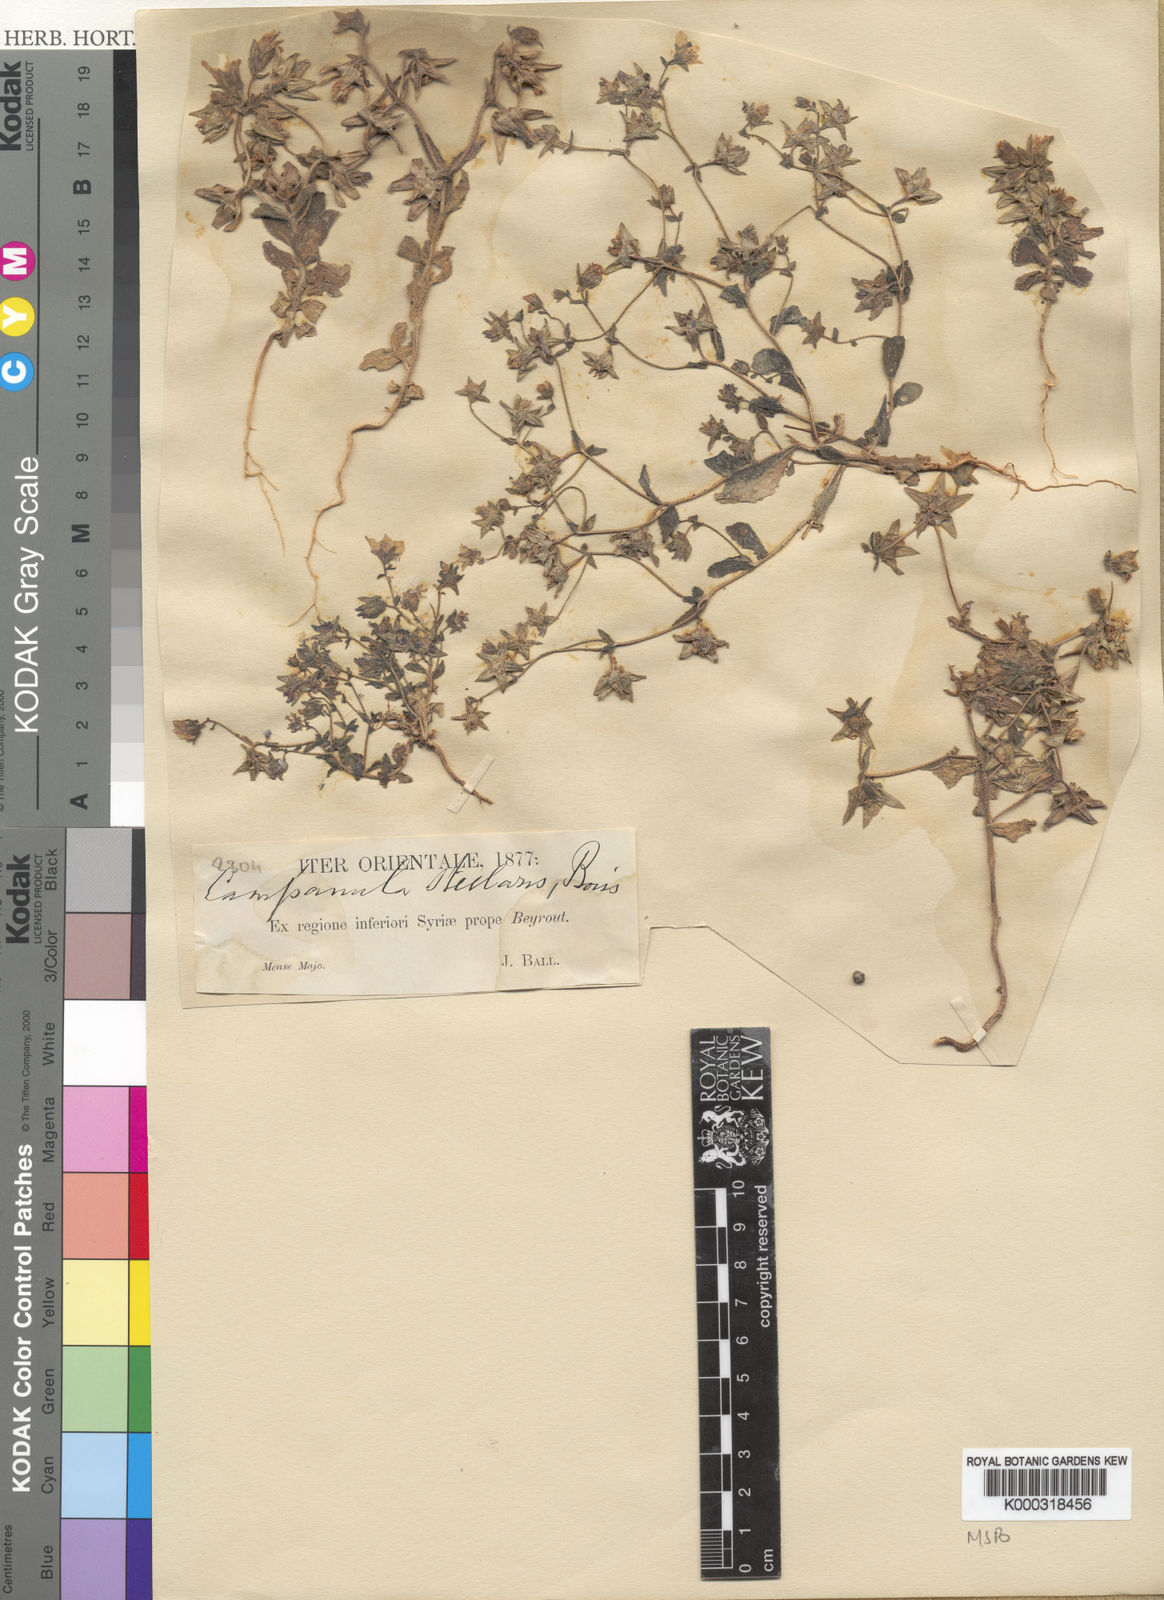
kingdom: Plantae
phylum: Tracheophyta
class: Magnoliopsida
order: Asterales
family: Campanulaceae
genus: Campanula
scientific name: Campanula stellaris
